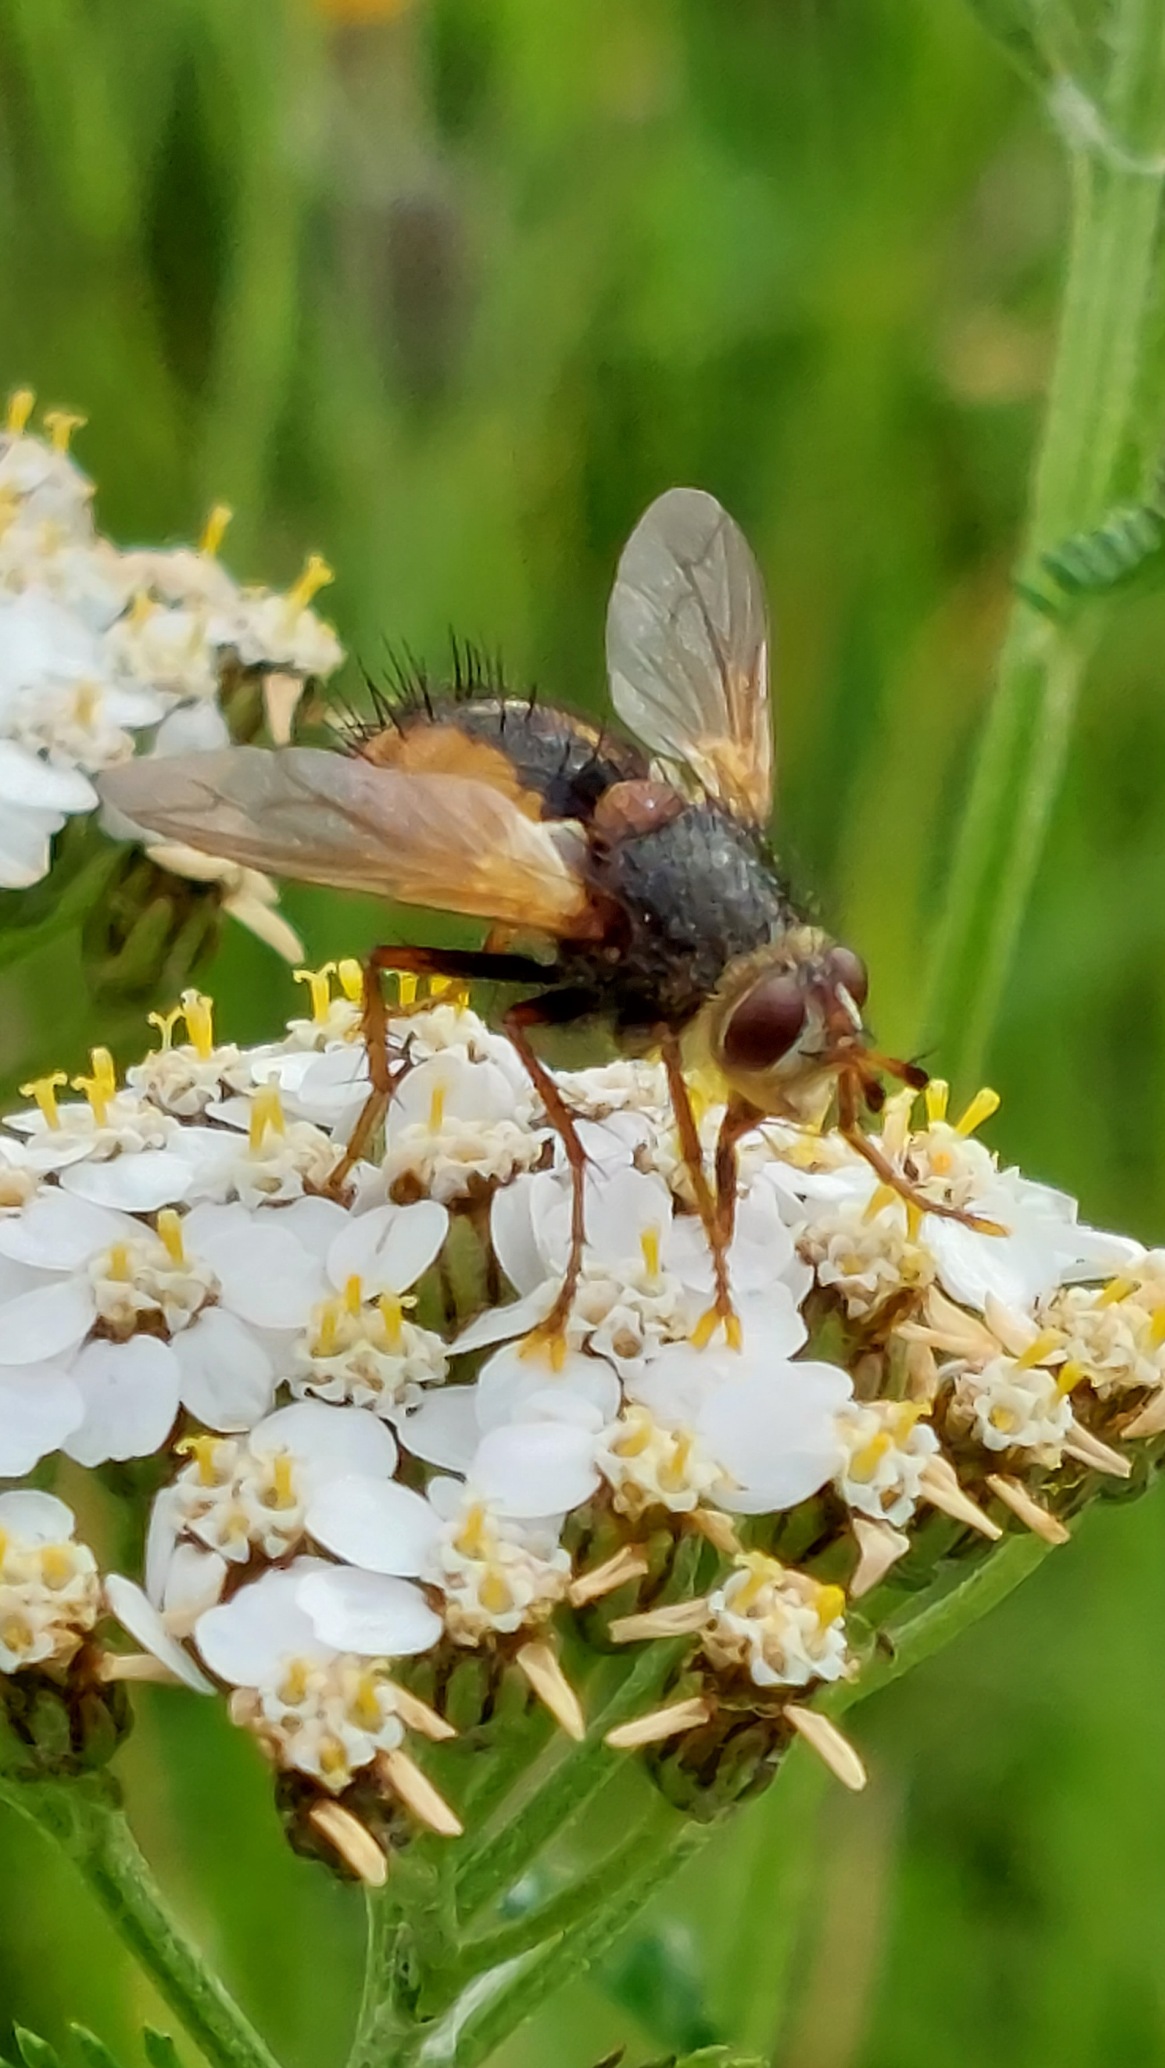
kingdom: Animalia
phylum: Arthropoda
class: Insecta
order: Diptera
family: Tachinidae
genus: Tachina
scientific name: Tachina fera
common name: Mellemfluen oskar
